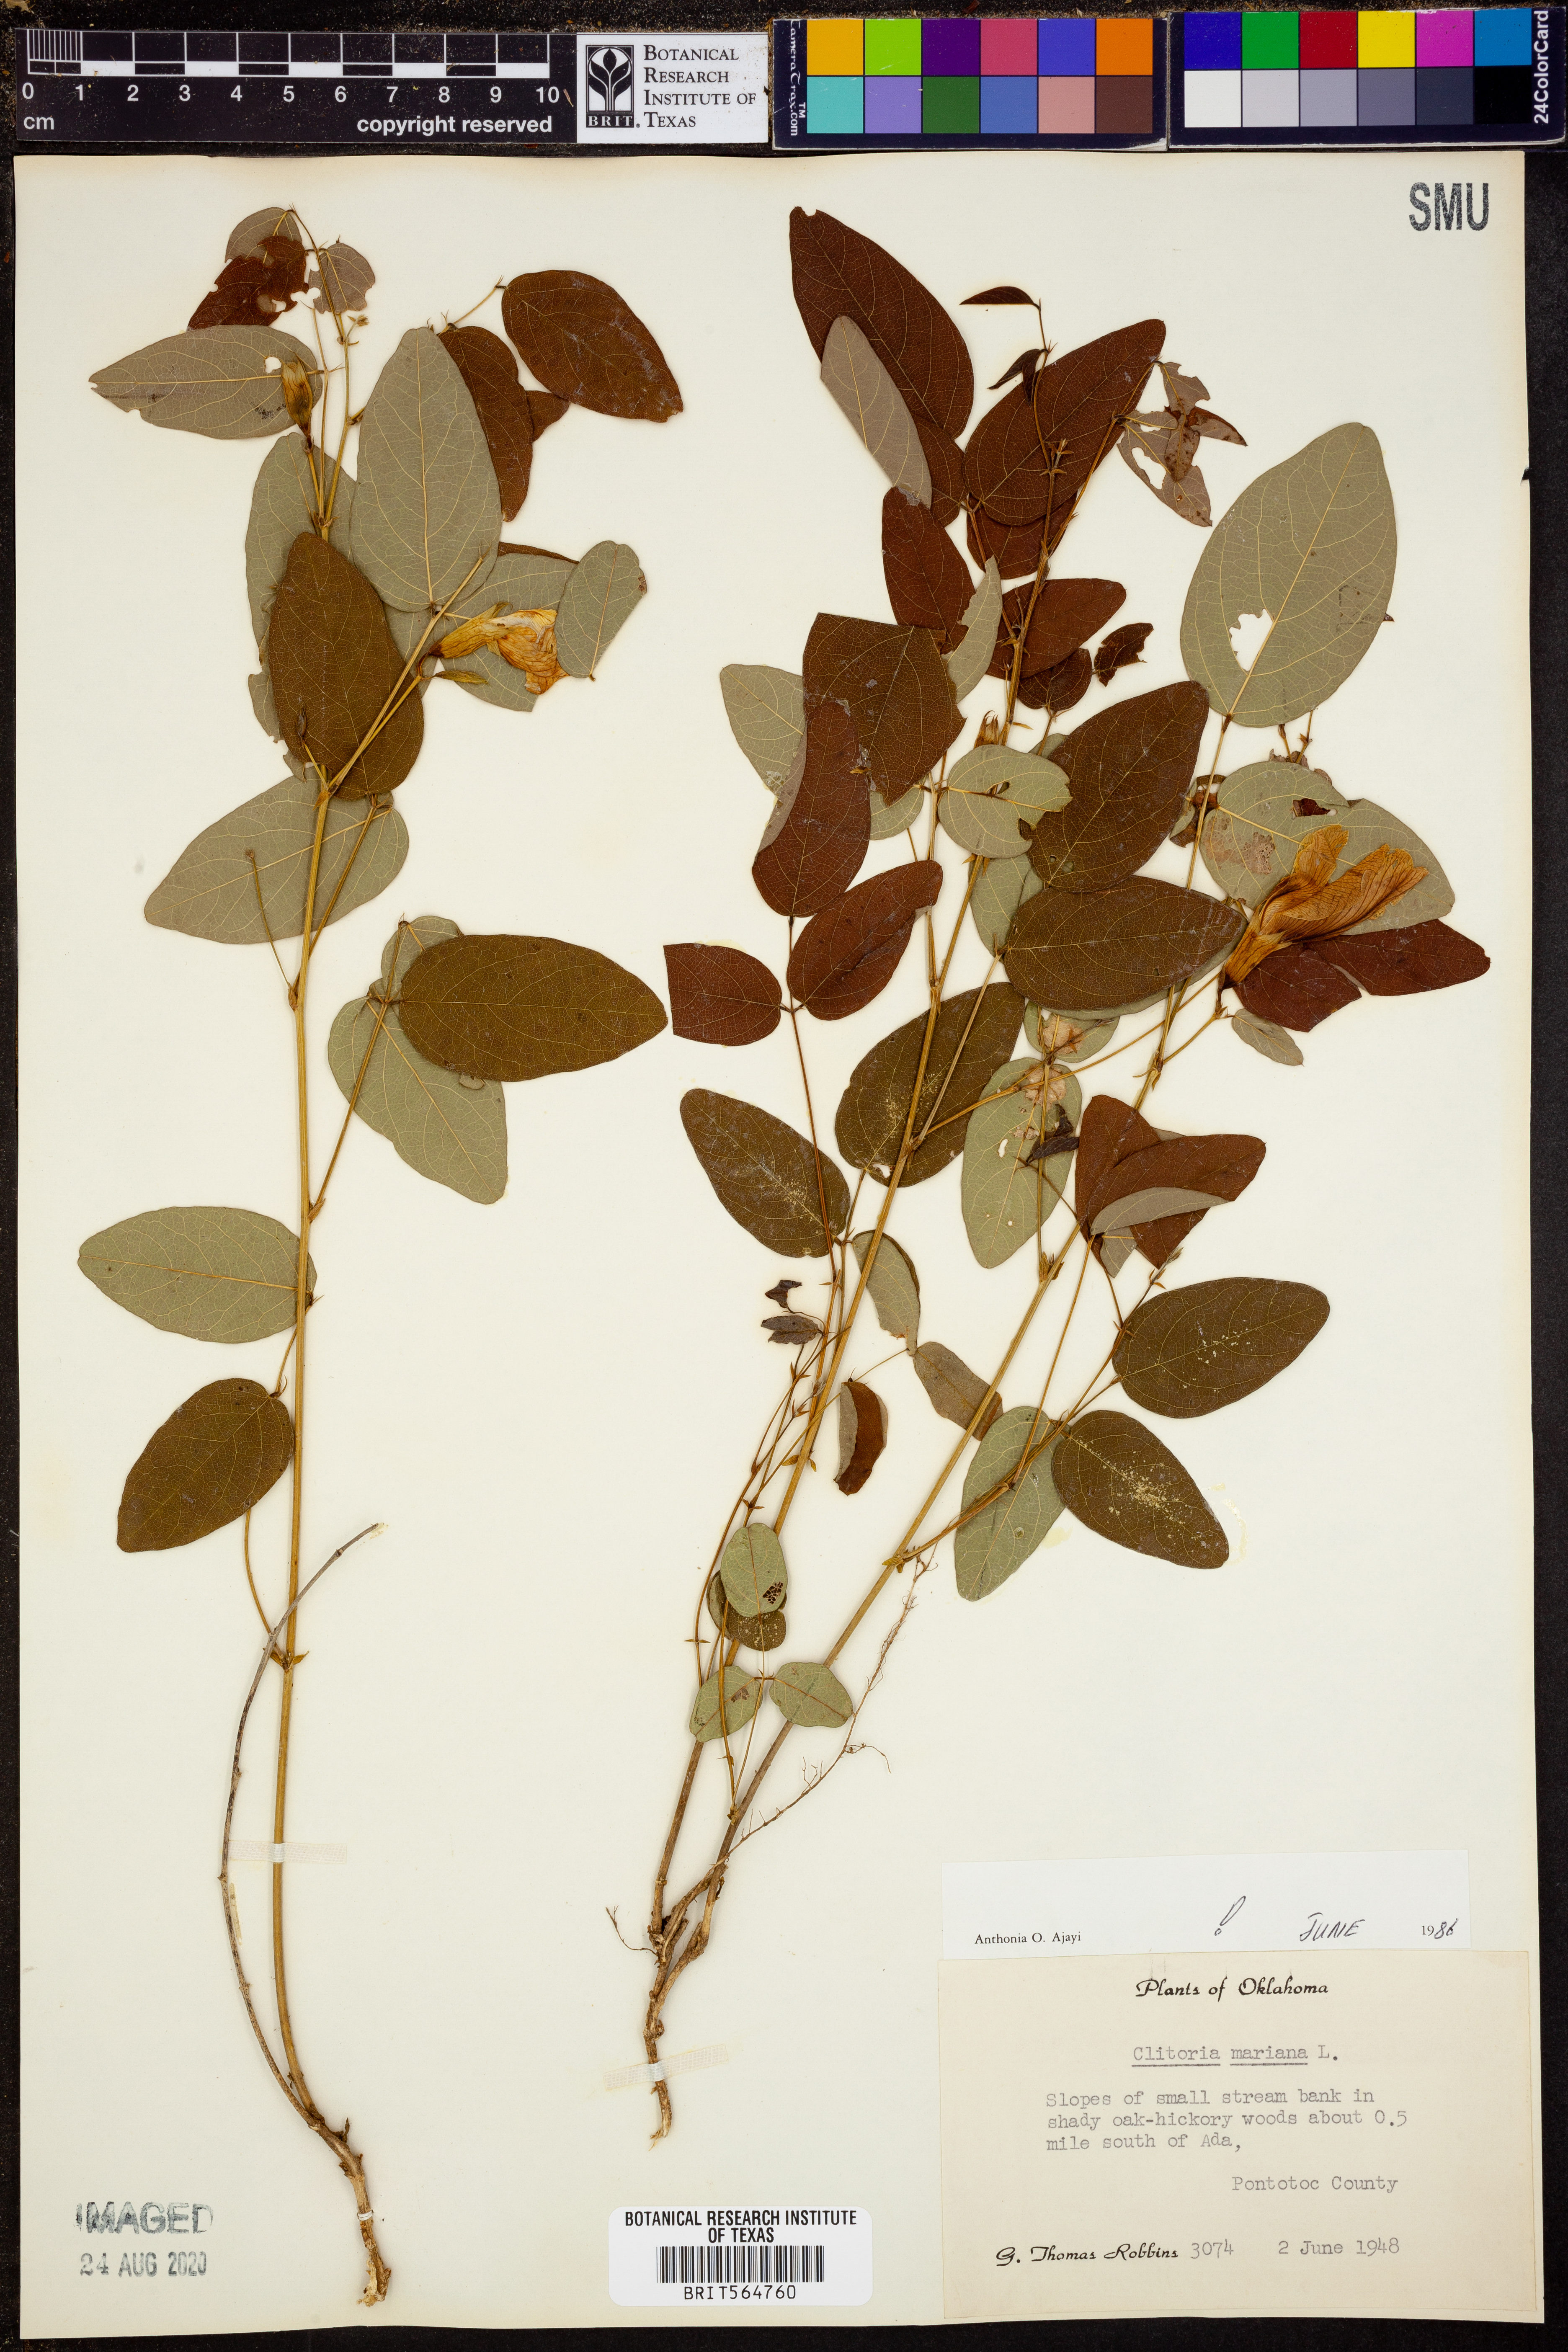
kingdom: Plantae
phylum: Tracheophyta
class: Magnoliopsida
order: Fabales
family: Fabaceae
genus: Clitoria
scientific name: Clitoria mariana
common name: Butterfly-pea
